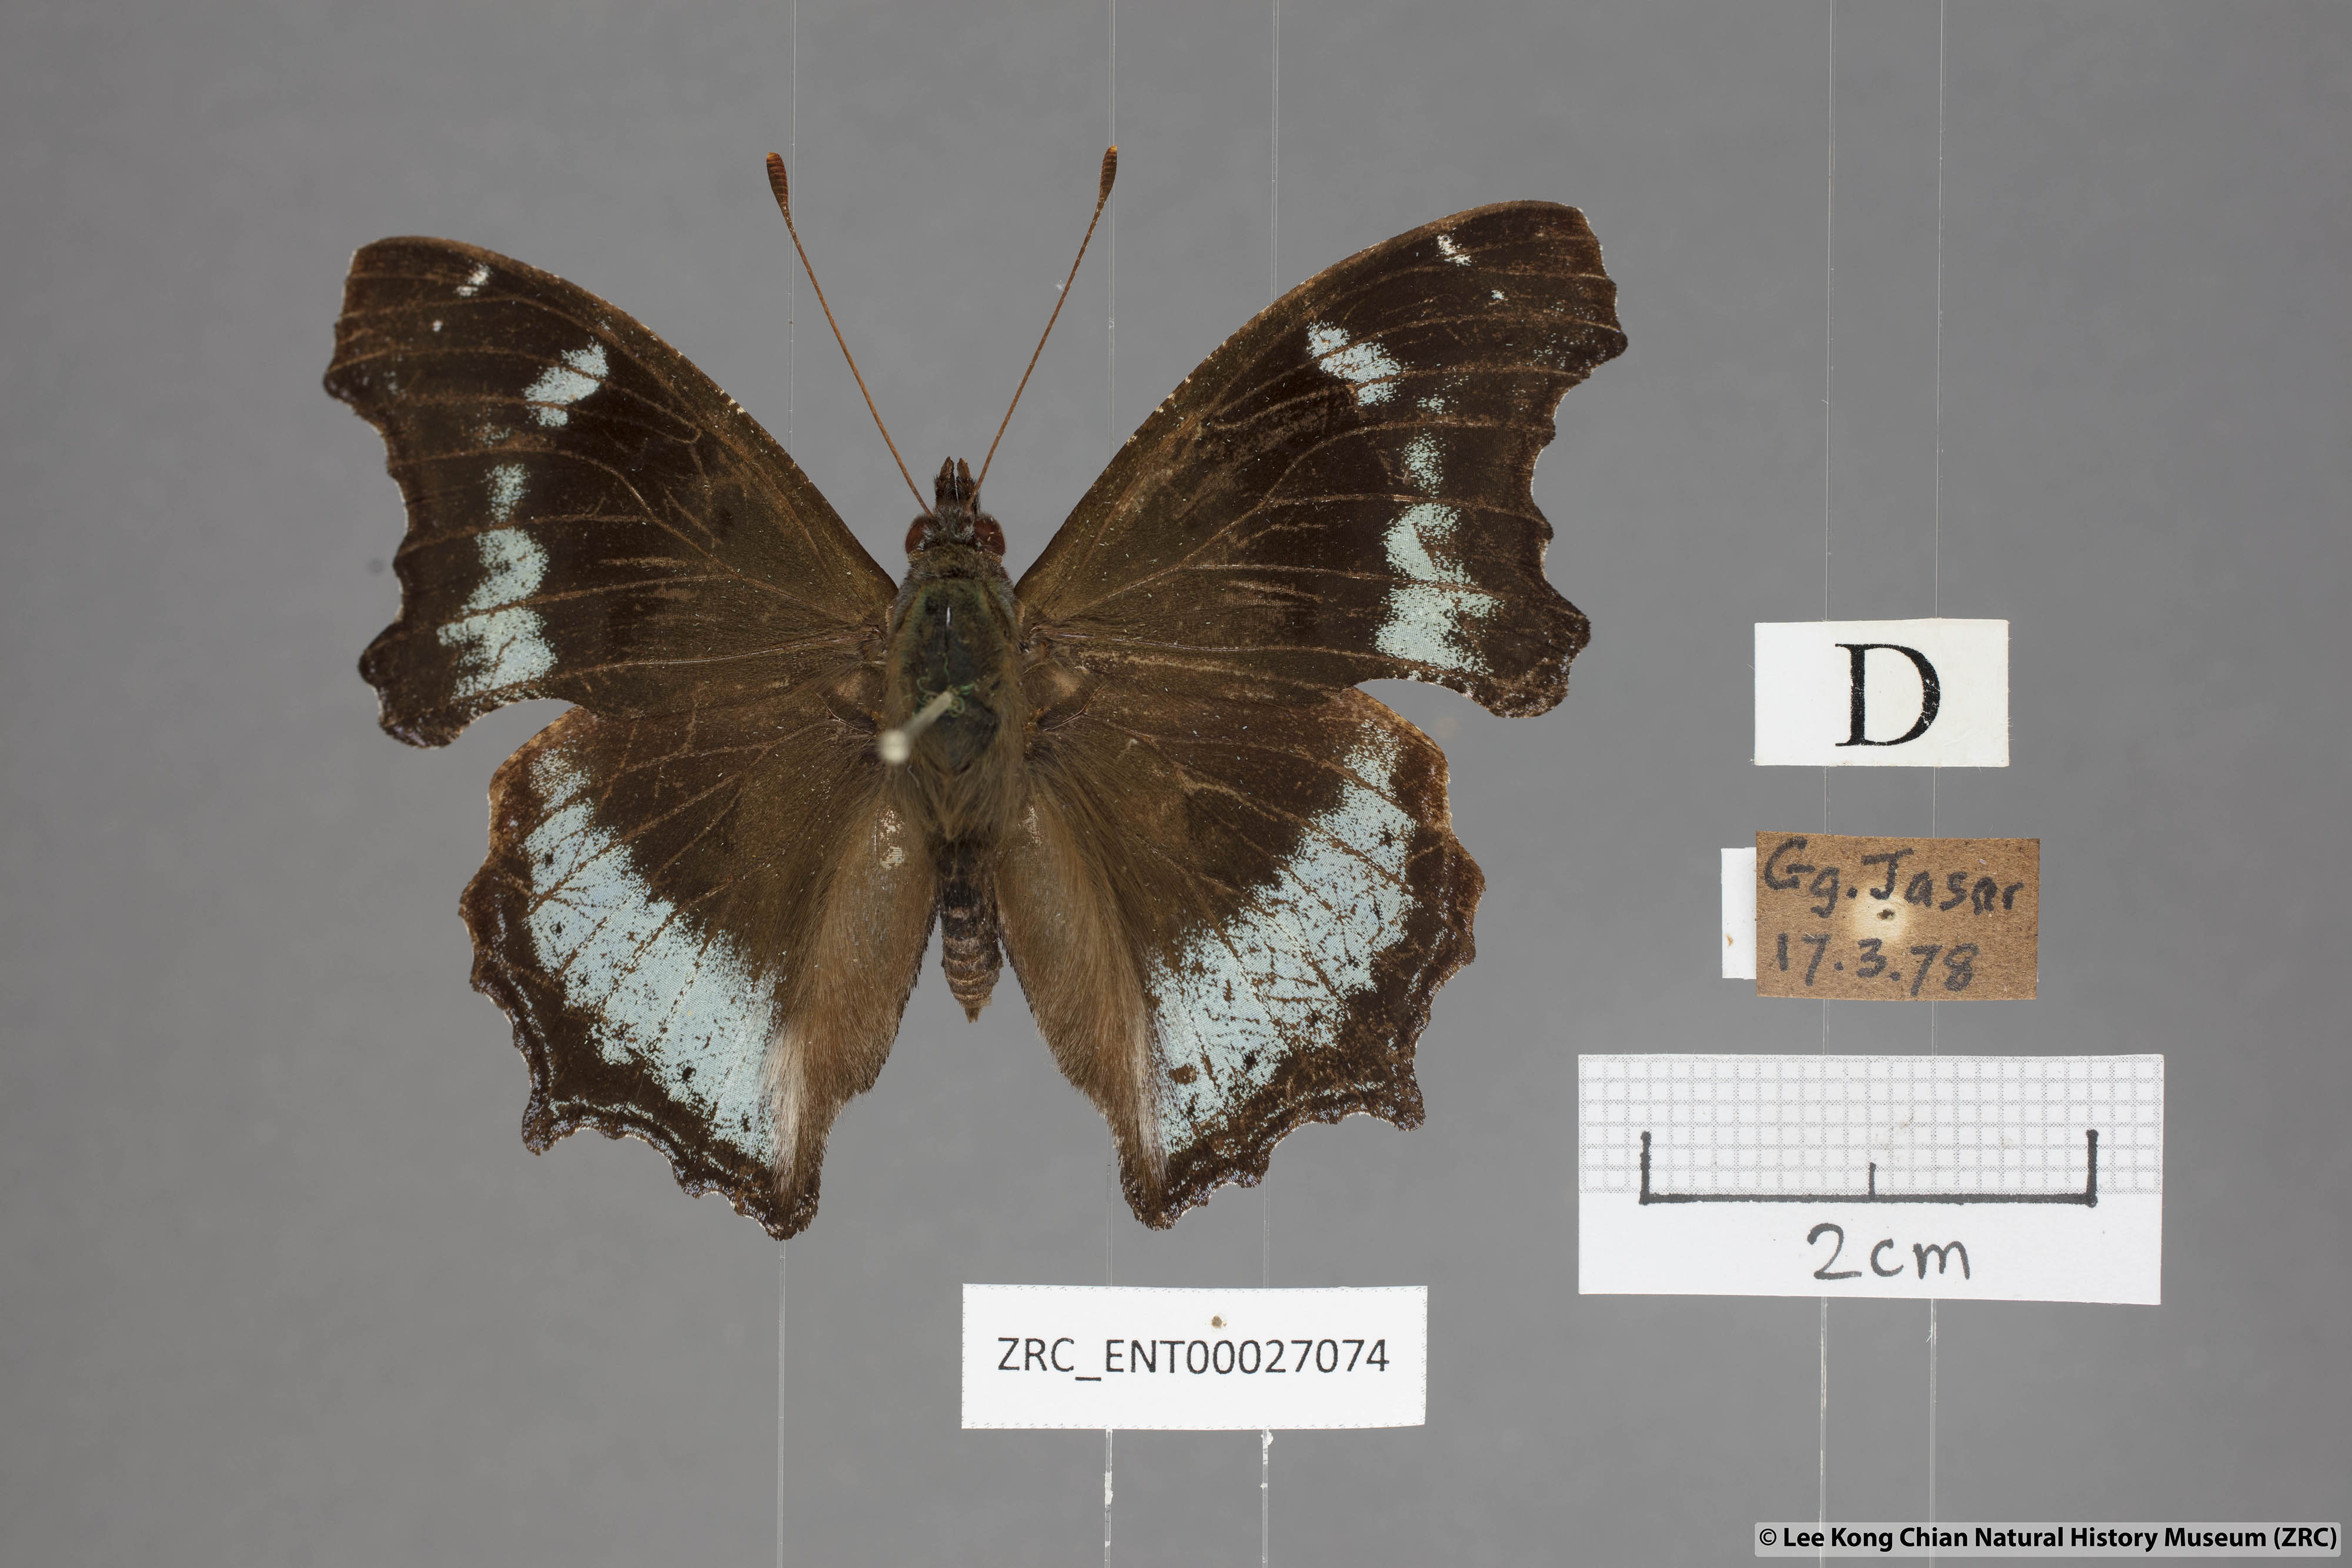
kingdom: Animalia
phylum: Arthropoda
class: Insecta
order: Lepidoptera
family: Nymphalidae
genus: Vanessa
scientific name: Vanessa Kaniska canace
